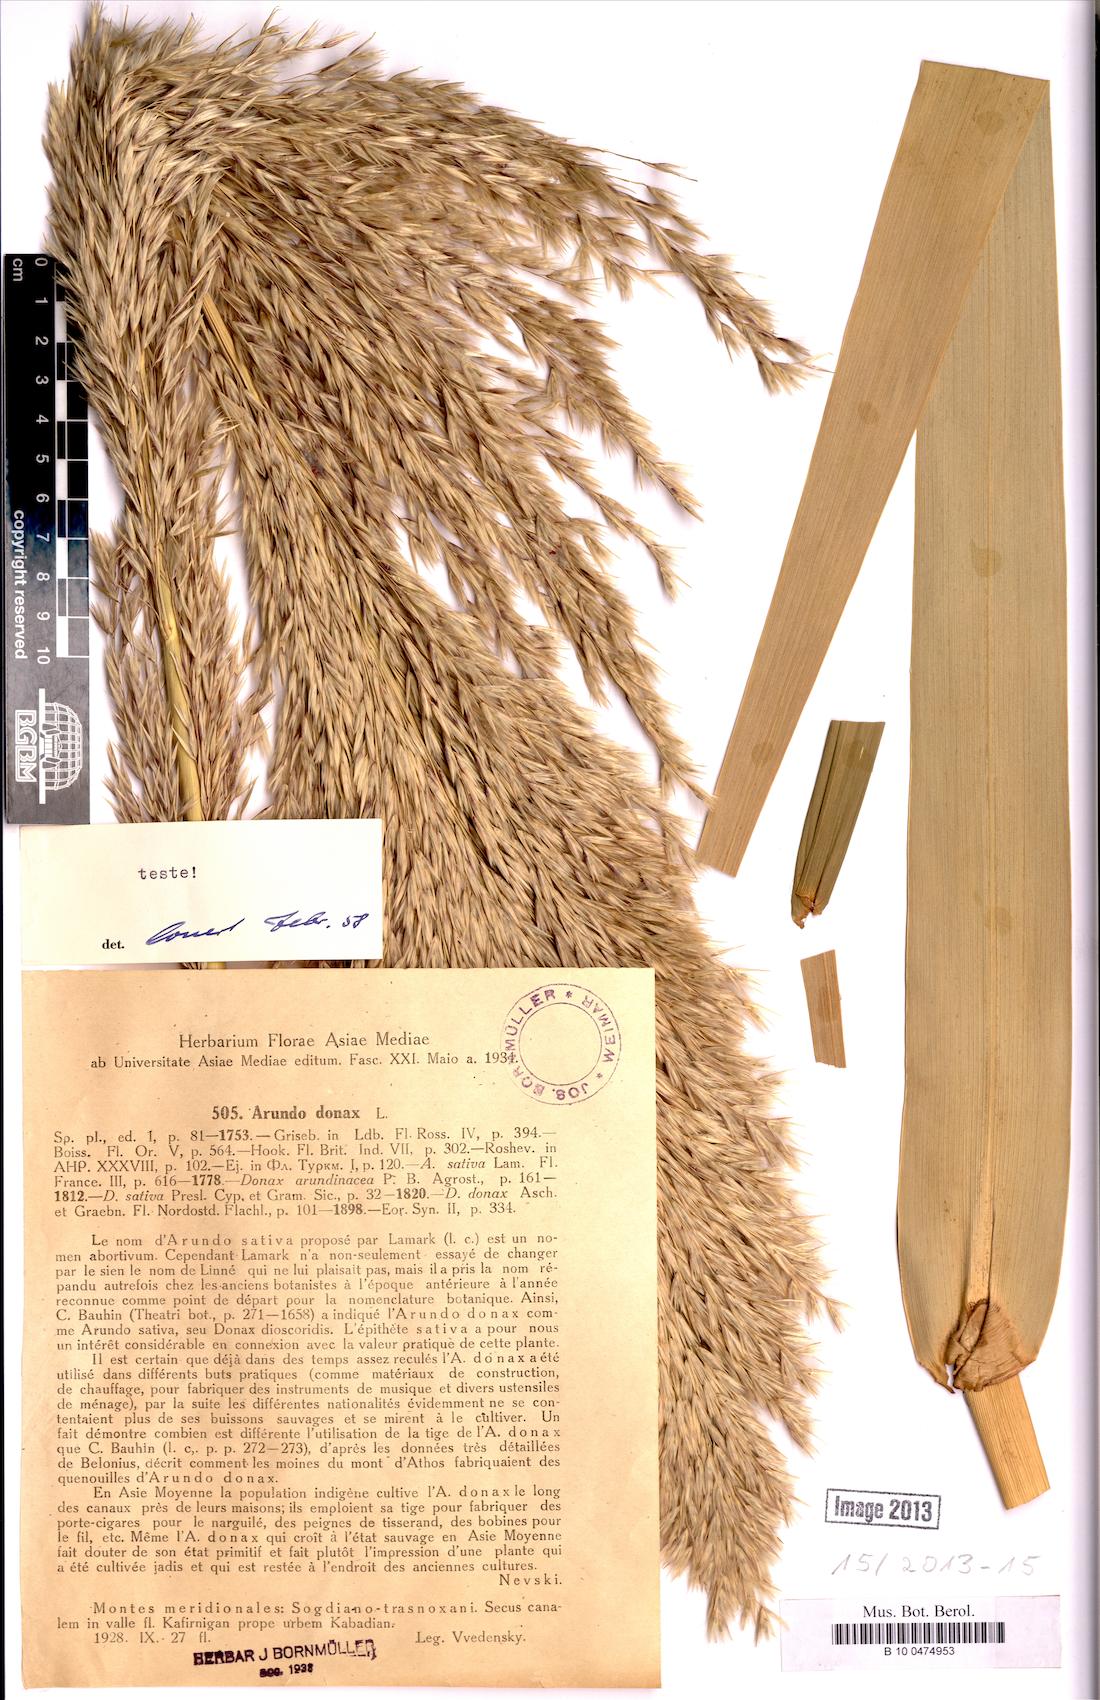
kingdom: Plantae
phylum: Tracheophyta
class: Liliopsida
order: Poales
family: Poaceae
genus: Arundo
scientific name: Arundo donax
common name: Giant reed
